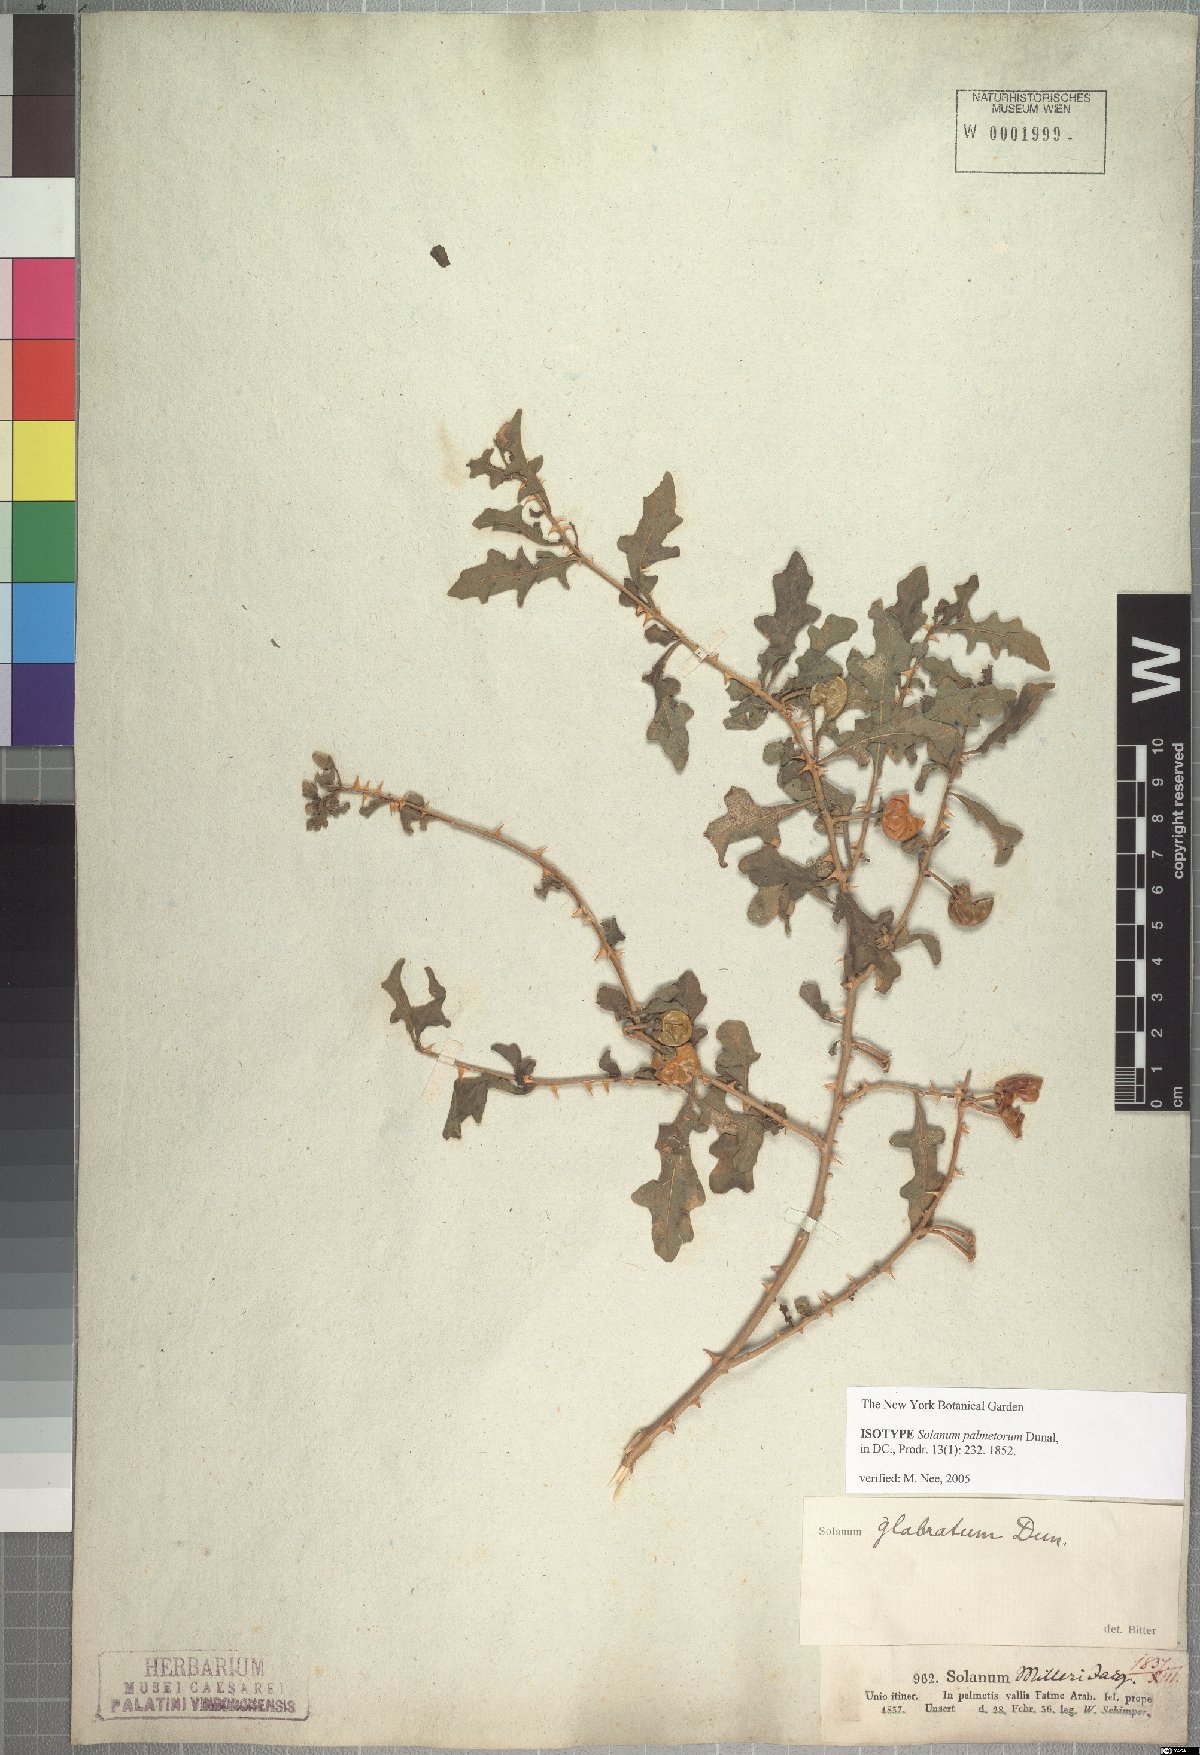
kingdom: Plantae
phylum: Tracheophyta
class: Magnoliopsida
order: Solanales
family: Solanaceae
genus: Solanum
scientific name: Solanum glabratum
